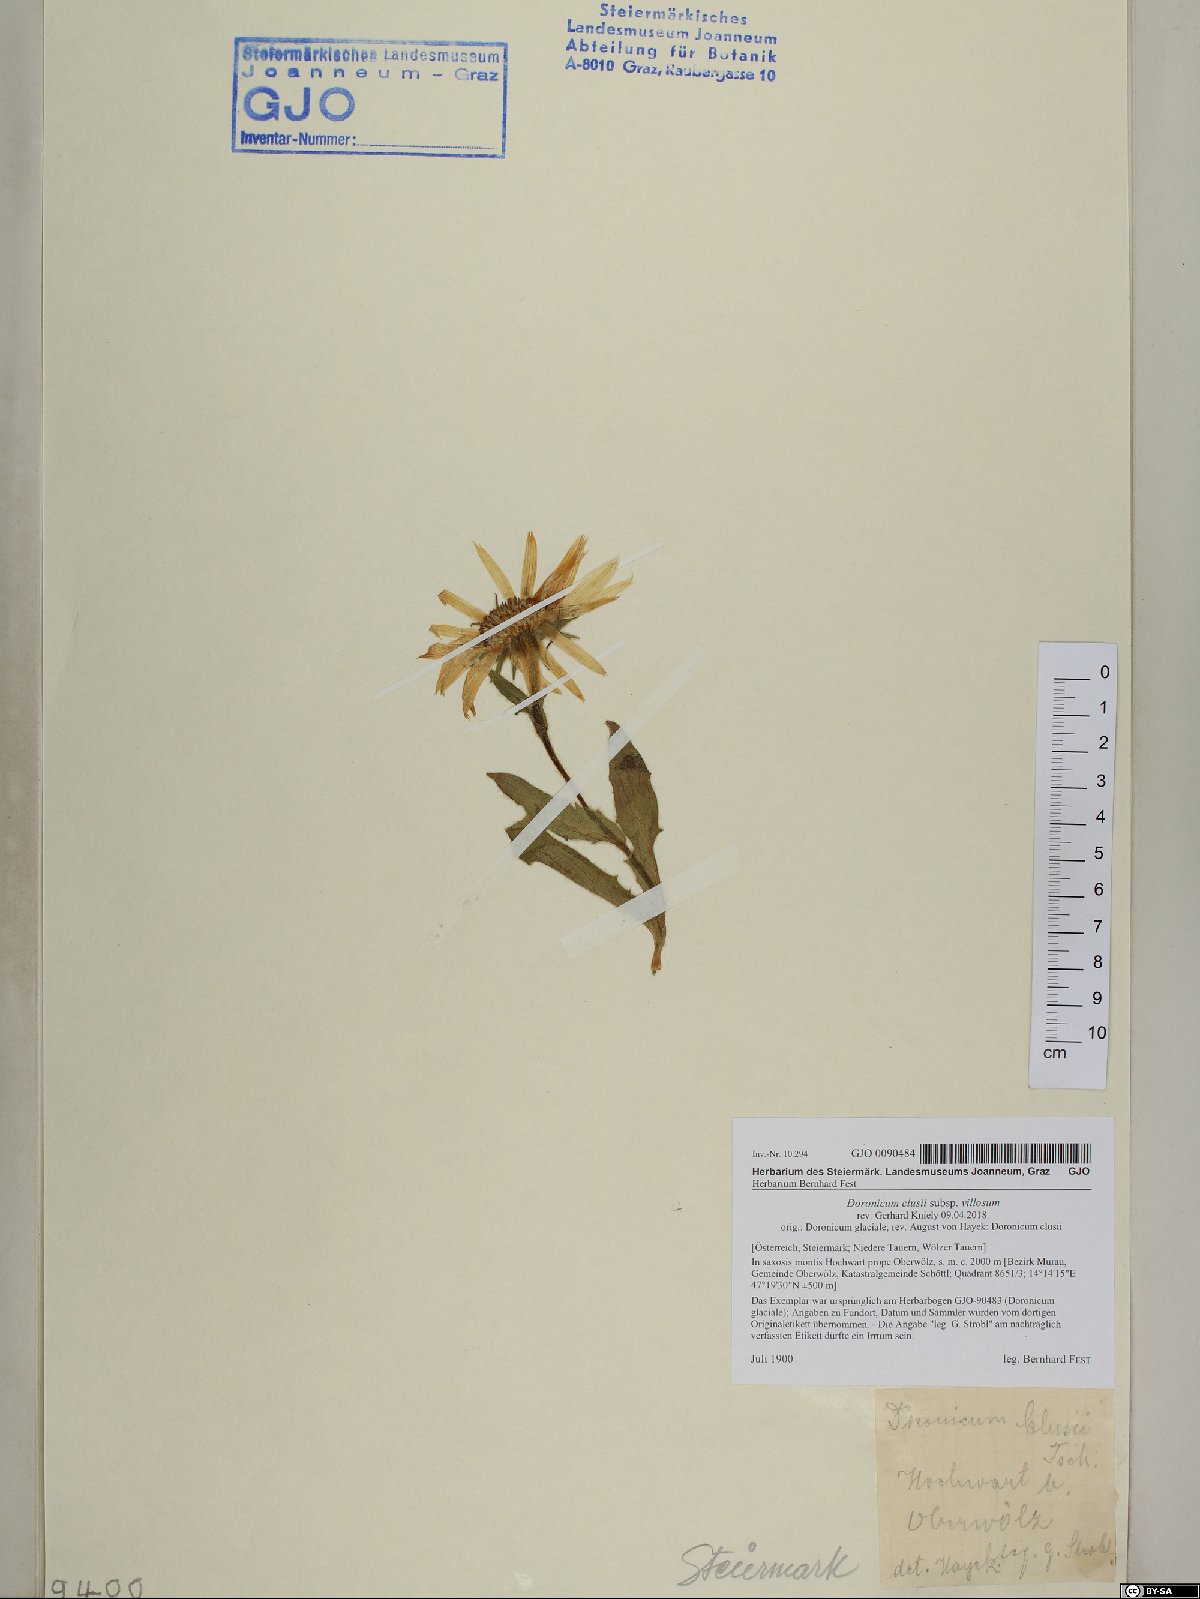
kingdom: Plantae
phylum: Tracheophyta
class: Magnoliopsida
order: Asterales
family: Asteraceae
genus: Doronicum
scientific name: Doronicum clusii
